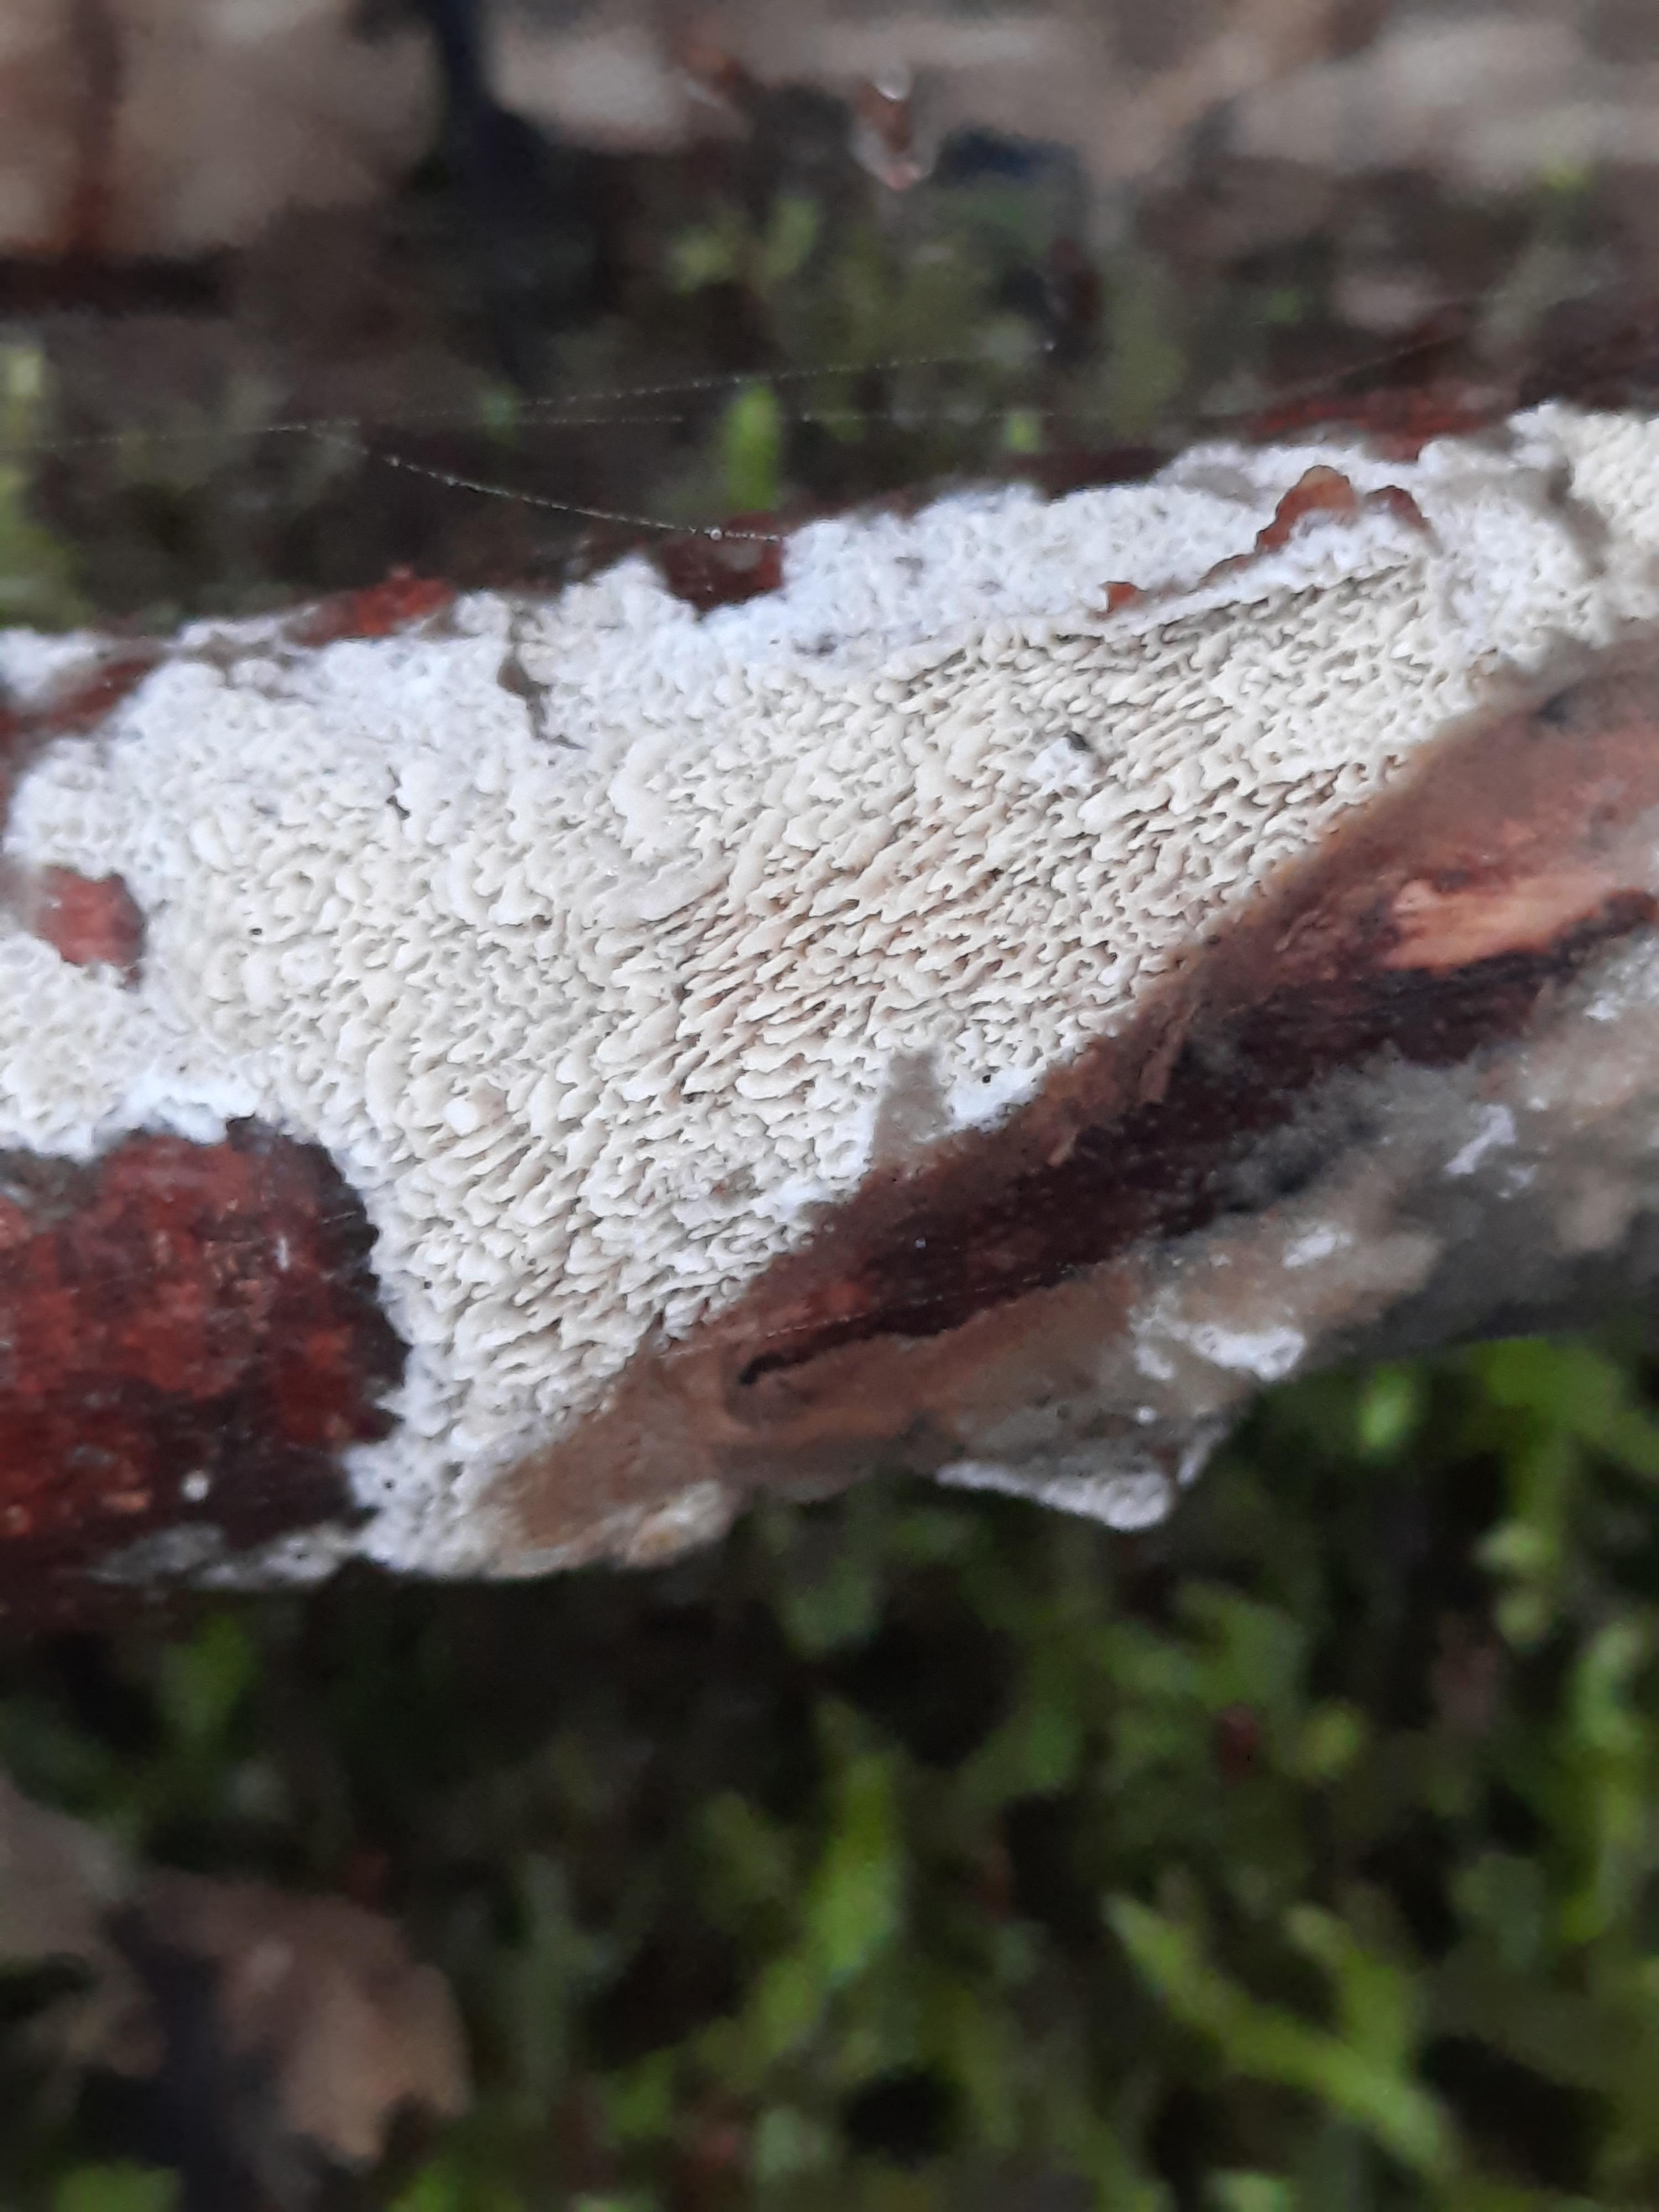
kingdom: Fungi
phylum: Basidiomycota
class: Agaricomycetes
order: Hymenochaetales
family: Schizoporaceae
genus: Xylodon
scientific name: Xylodon
